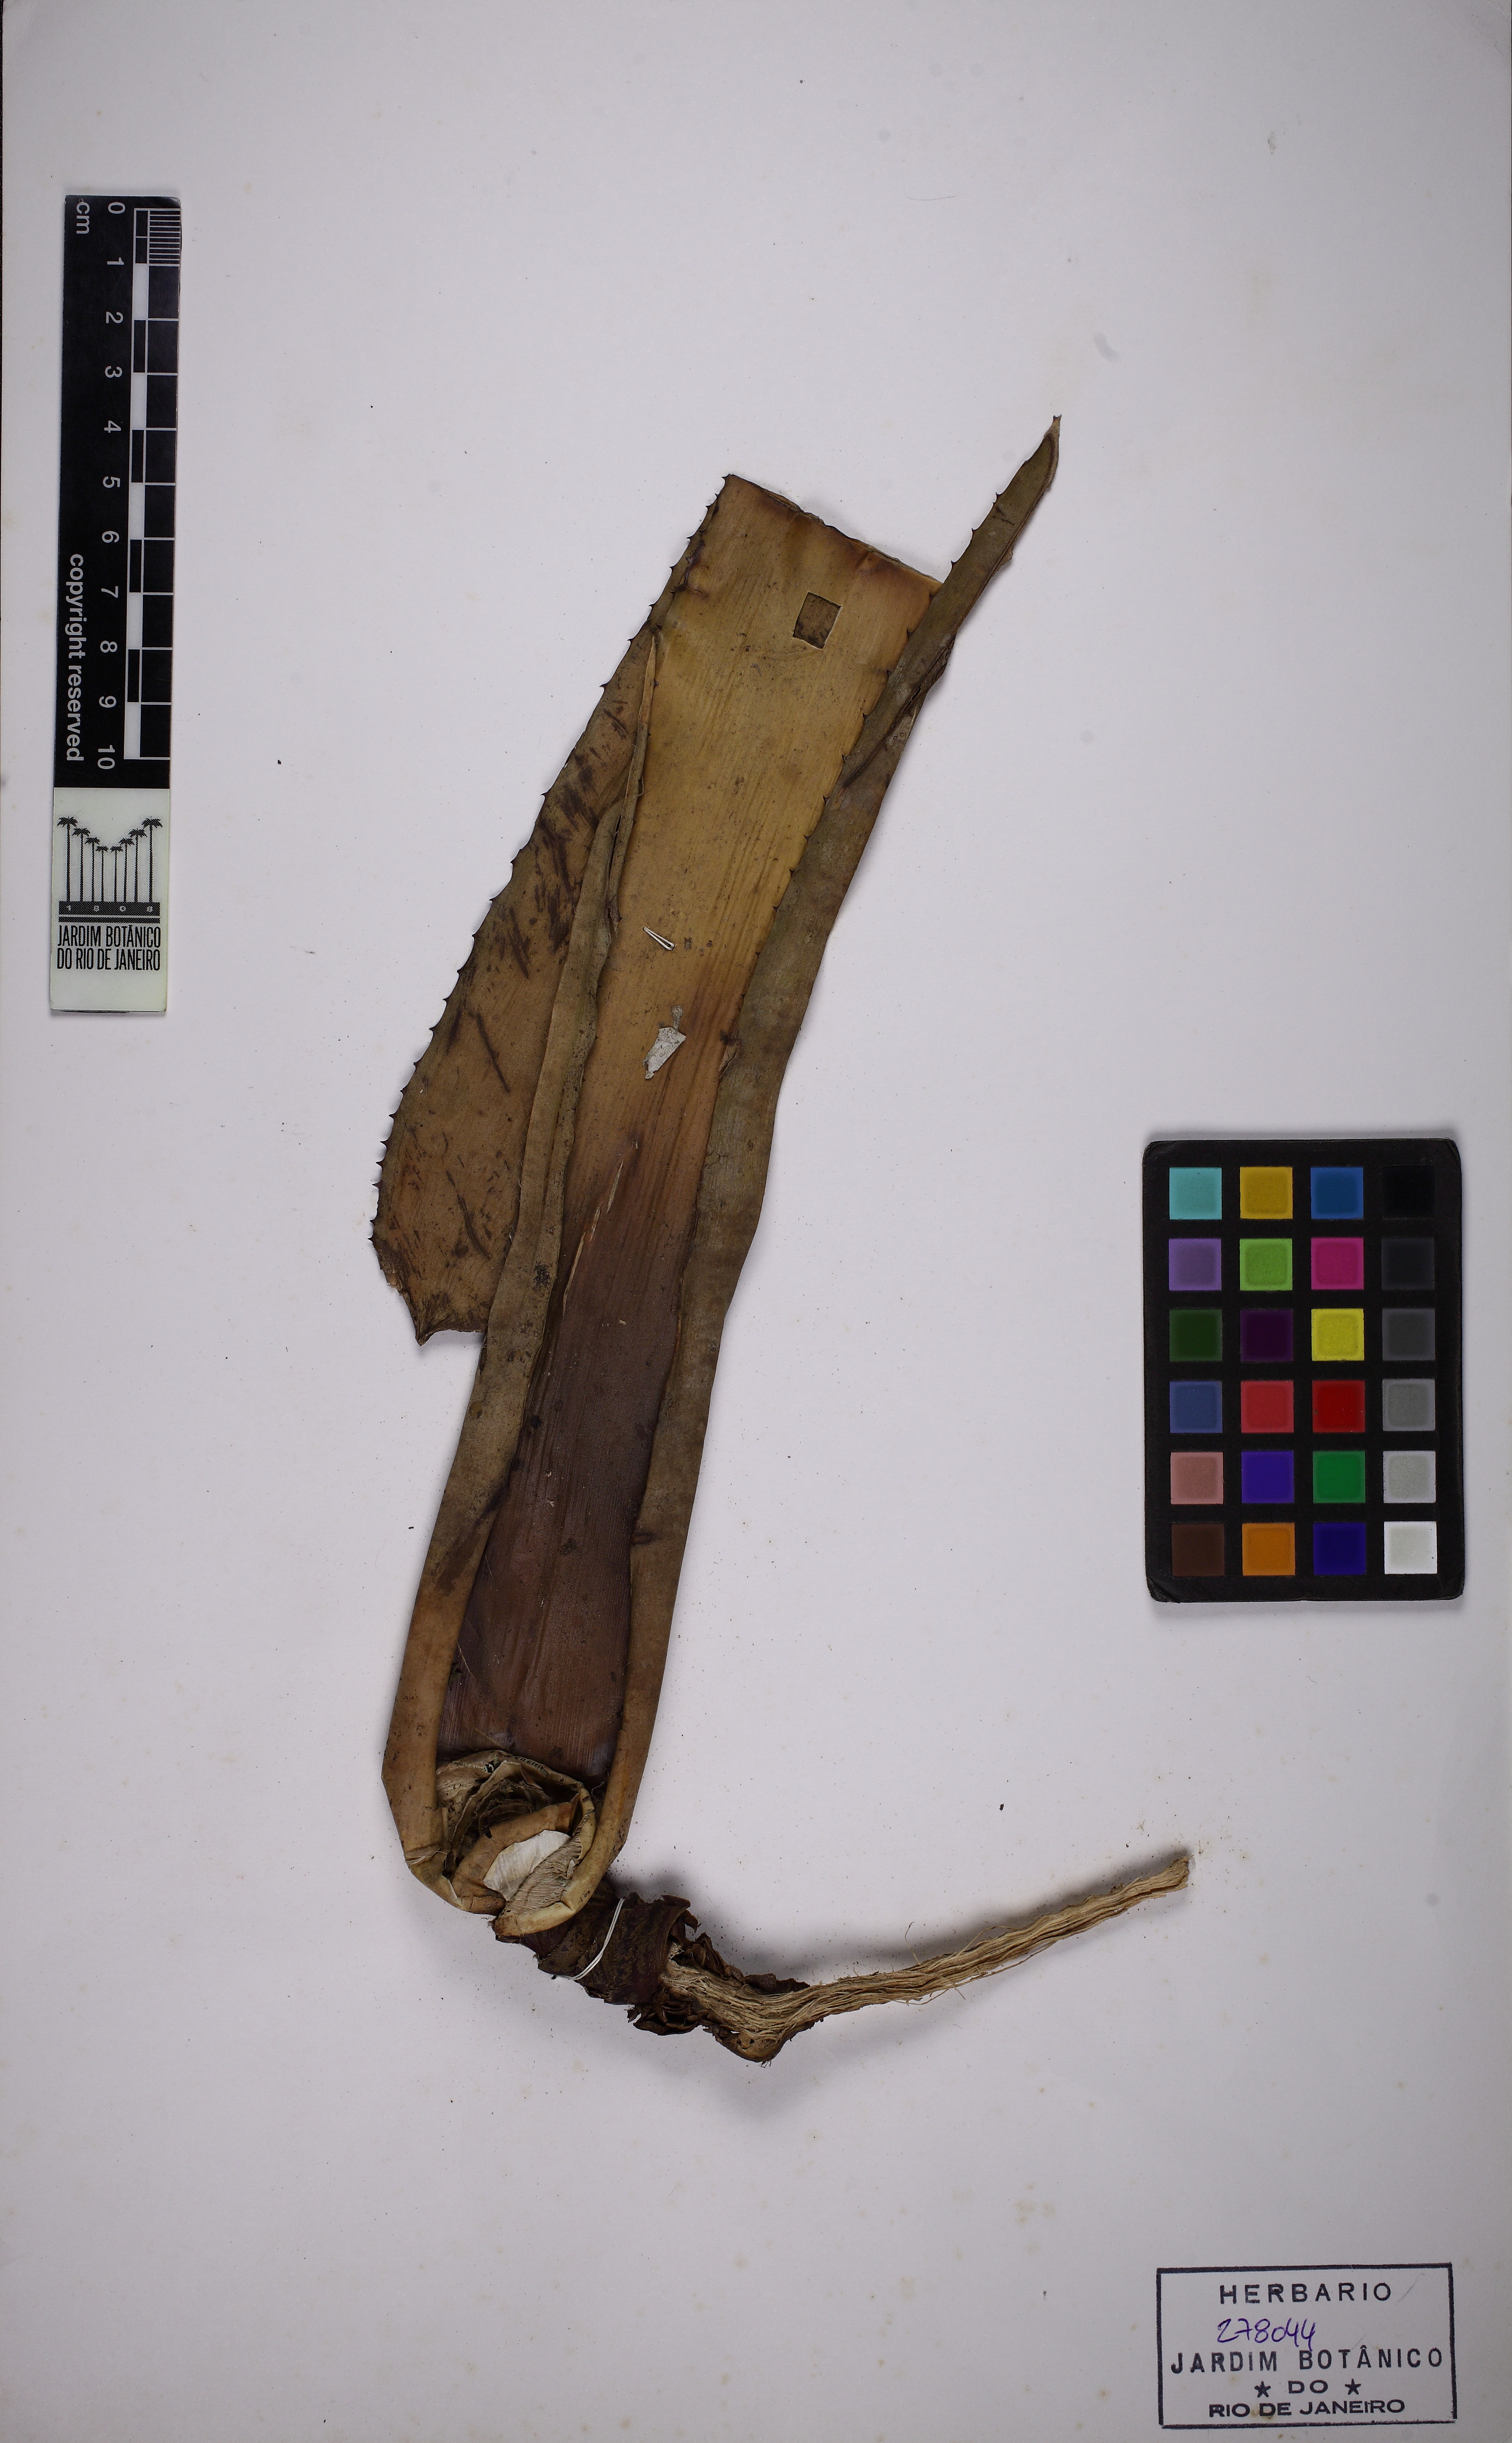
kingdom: Plantae
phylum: Tracheophyta
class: Liliopsida
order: Poales
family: Bromeliaceae
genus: Quesnelia
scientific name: Quesnelia marmorata
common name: Grecian urnplant
